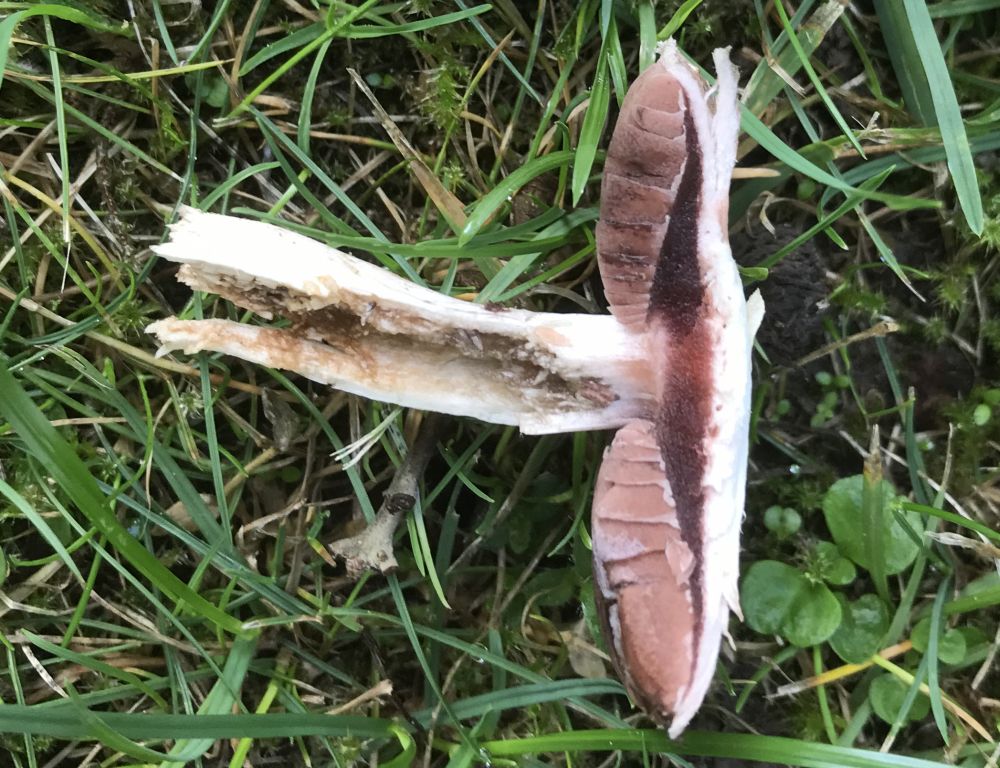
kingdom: Fungi
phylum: Basidiomycota
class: Agaricomycetes
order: Agaricales
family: Agaricaceae
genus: Agaricus
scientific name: Agaricus campestris
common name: mark-champignon
